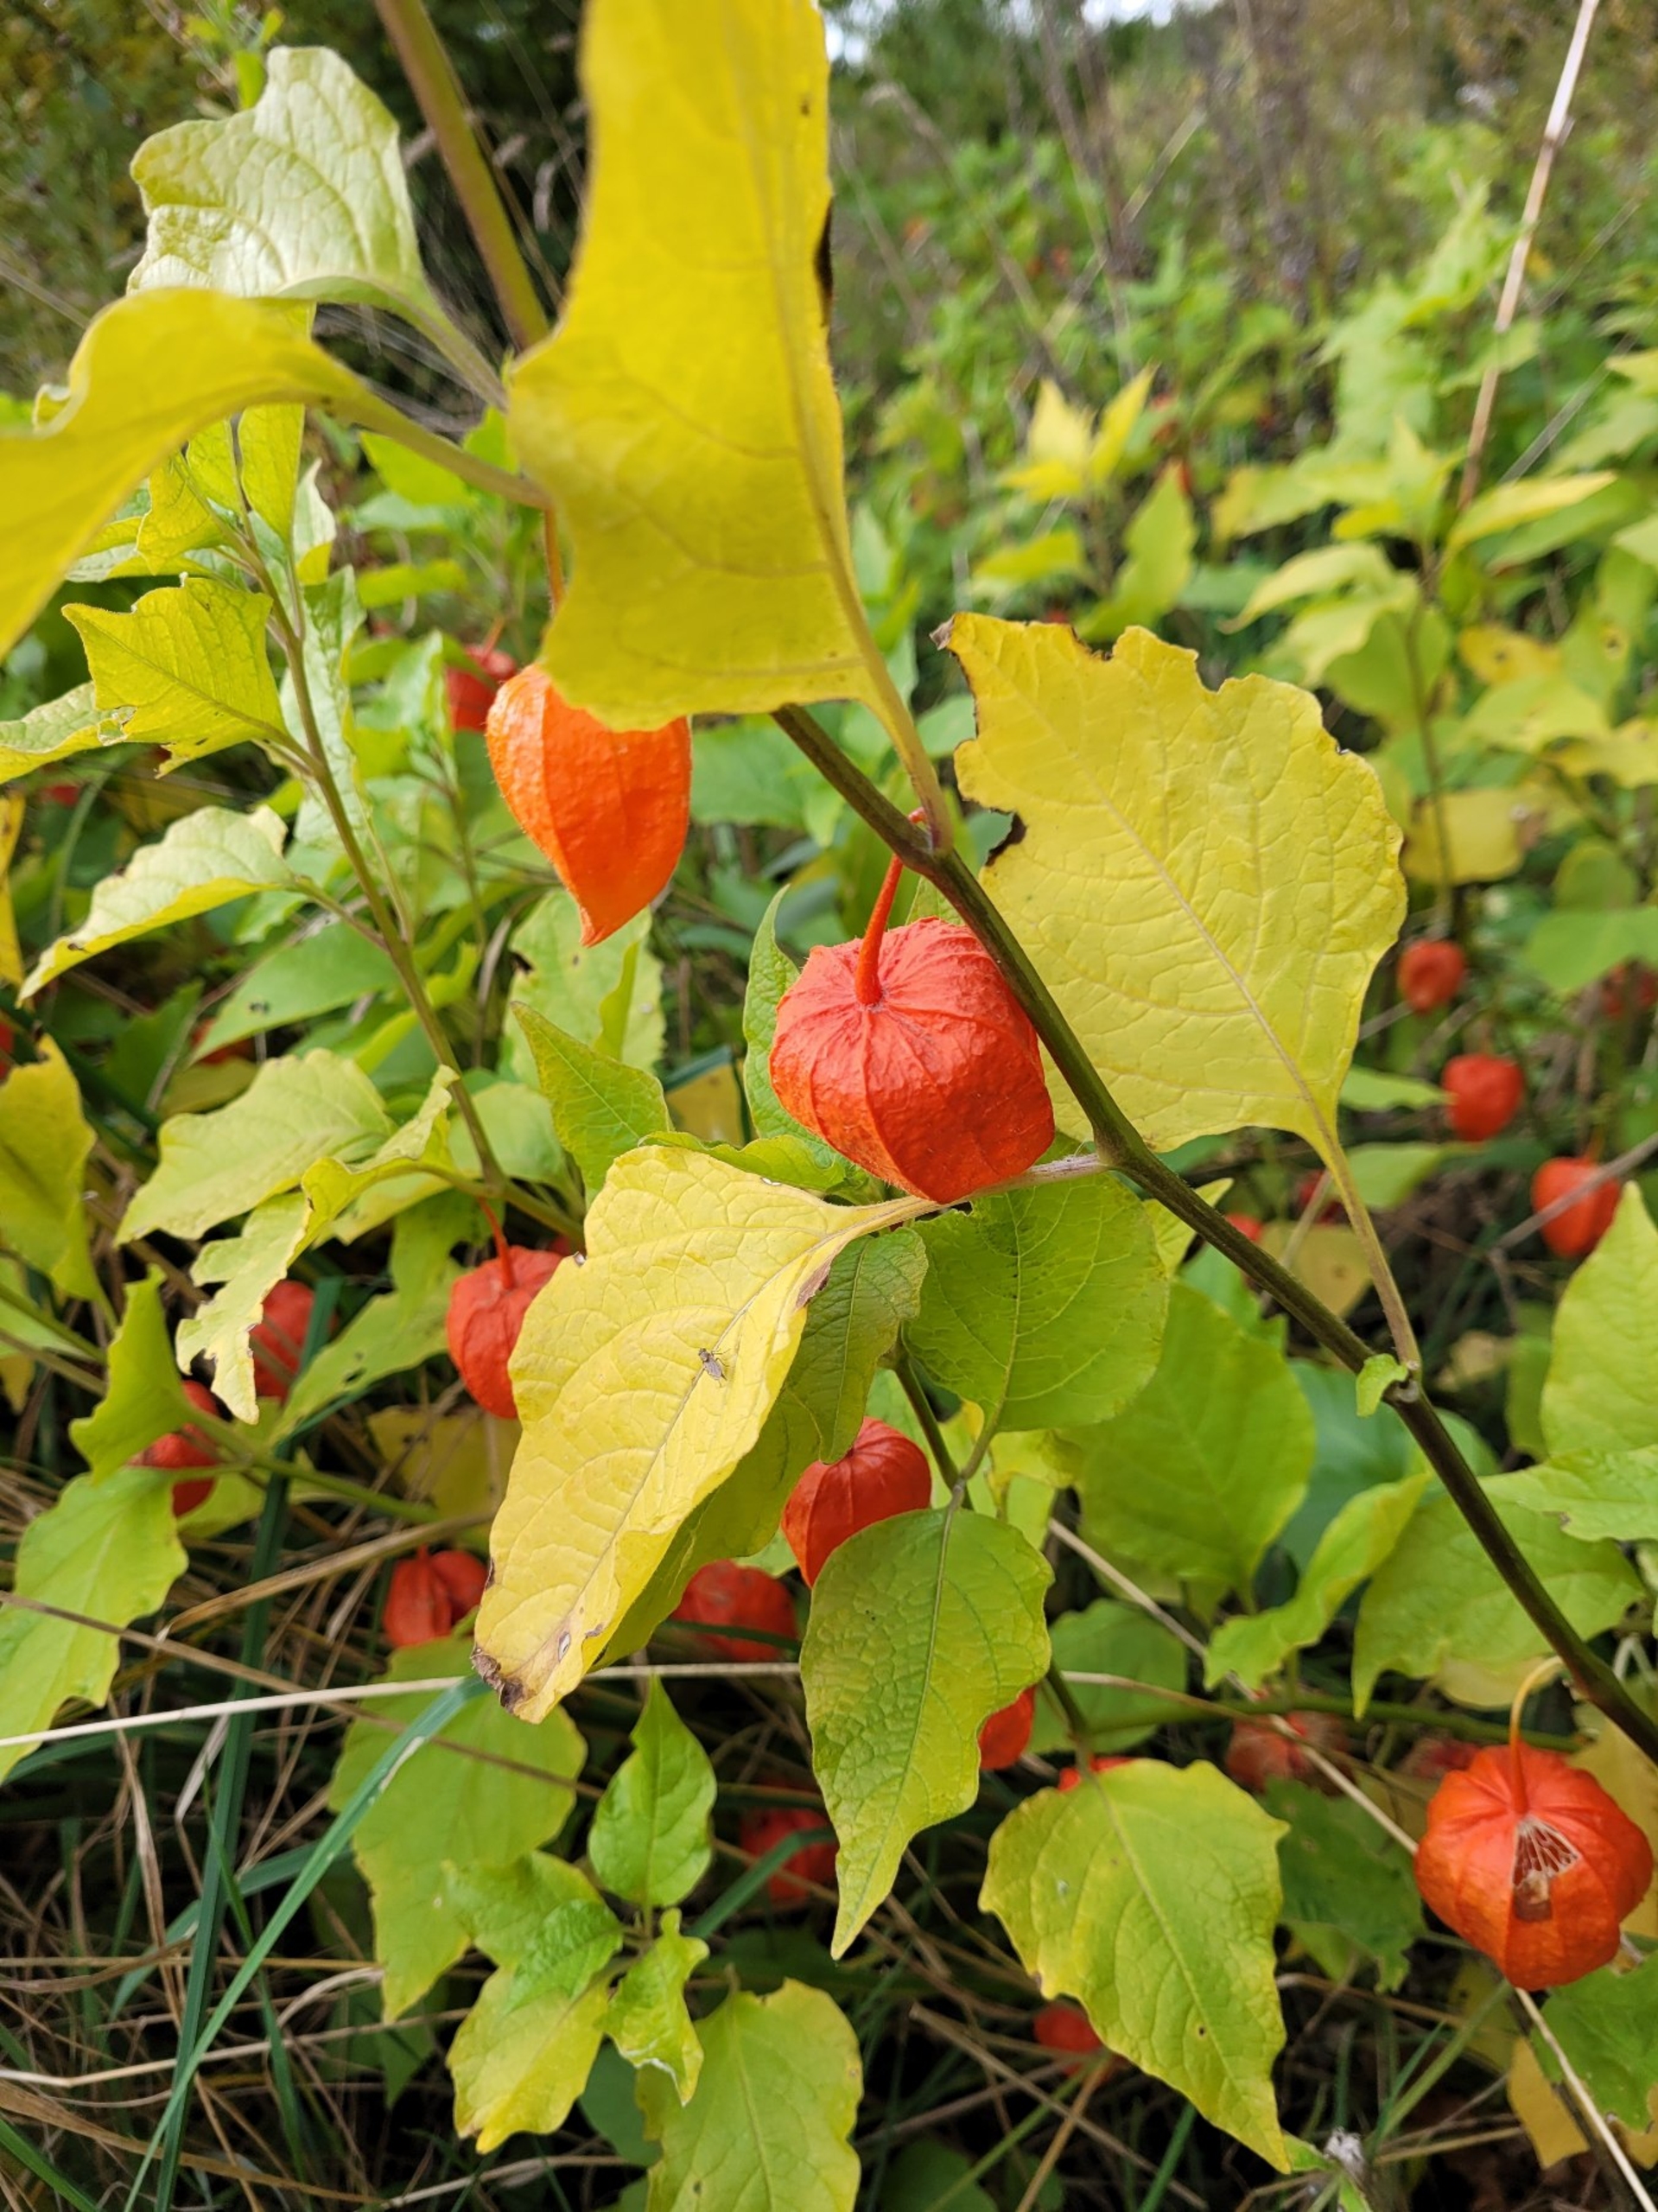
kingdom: Plantae
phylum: Tracheophyta
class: Magnoliopsida
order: Solanales
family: Solanaceae
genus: Alkekengi
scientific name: Alkekengi officinarum
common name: Jødekirsebær
